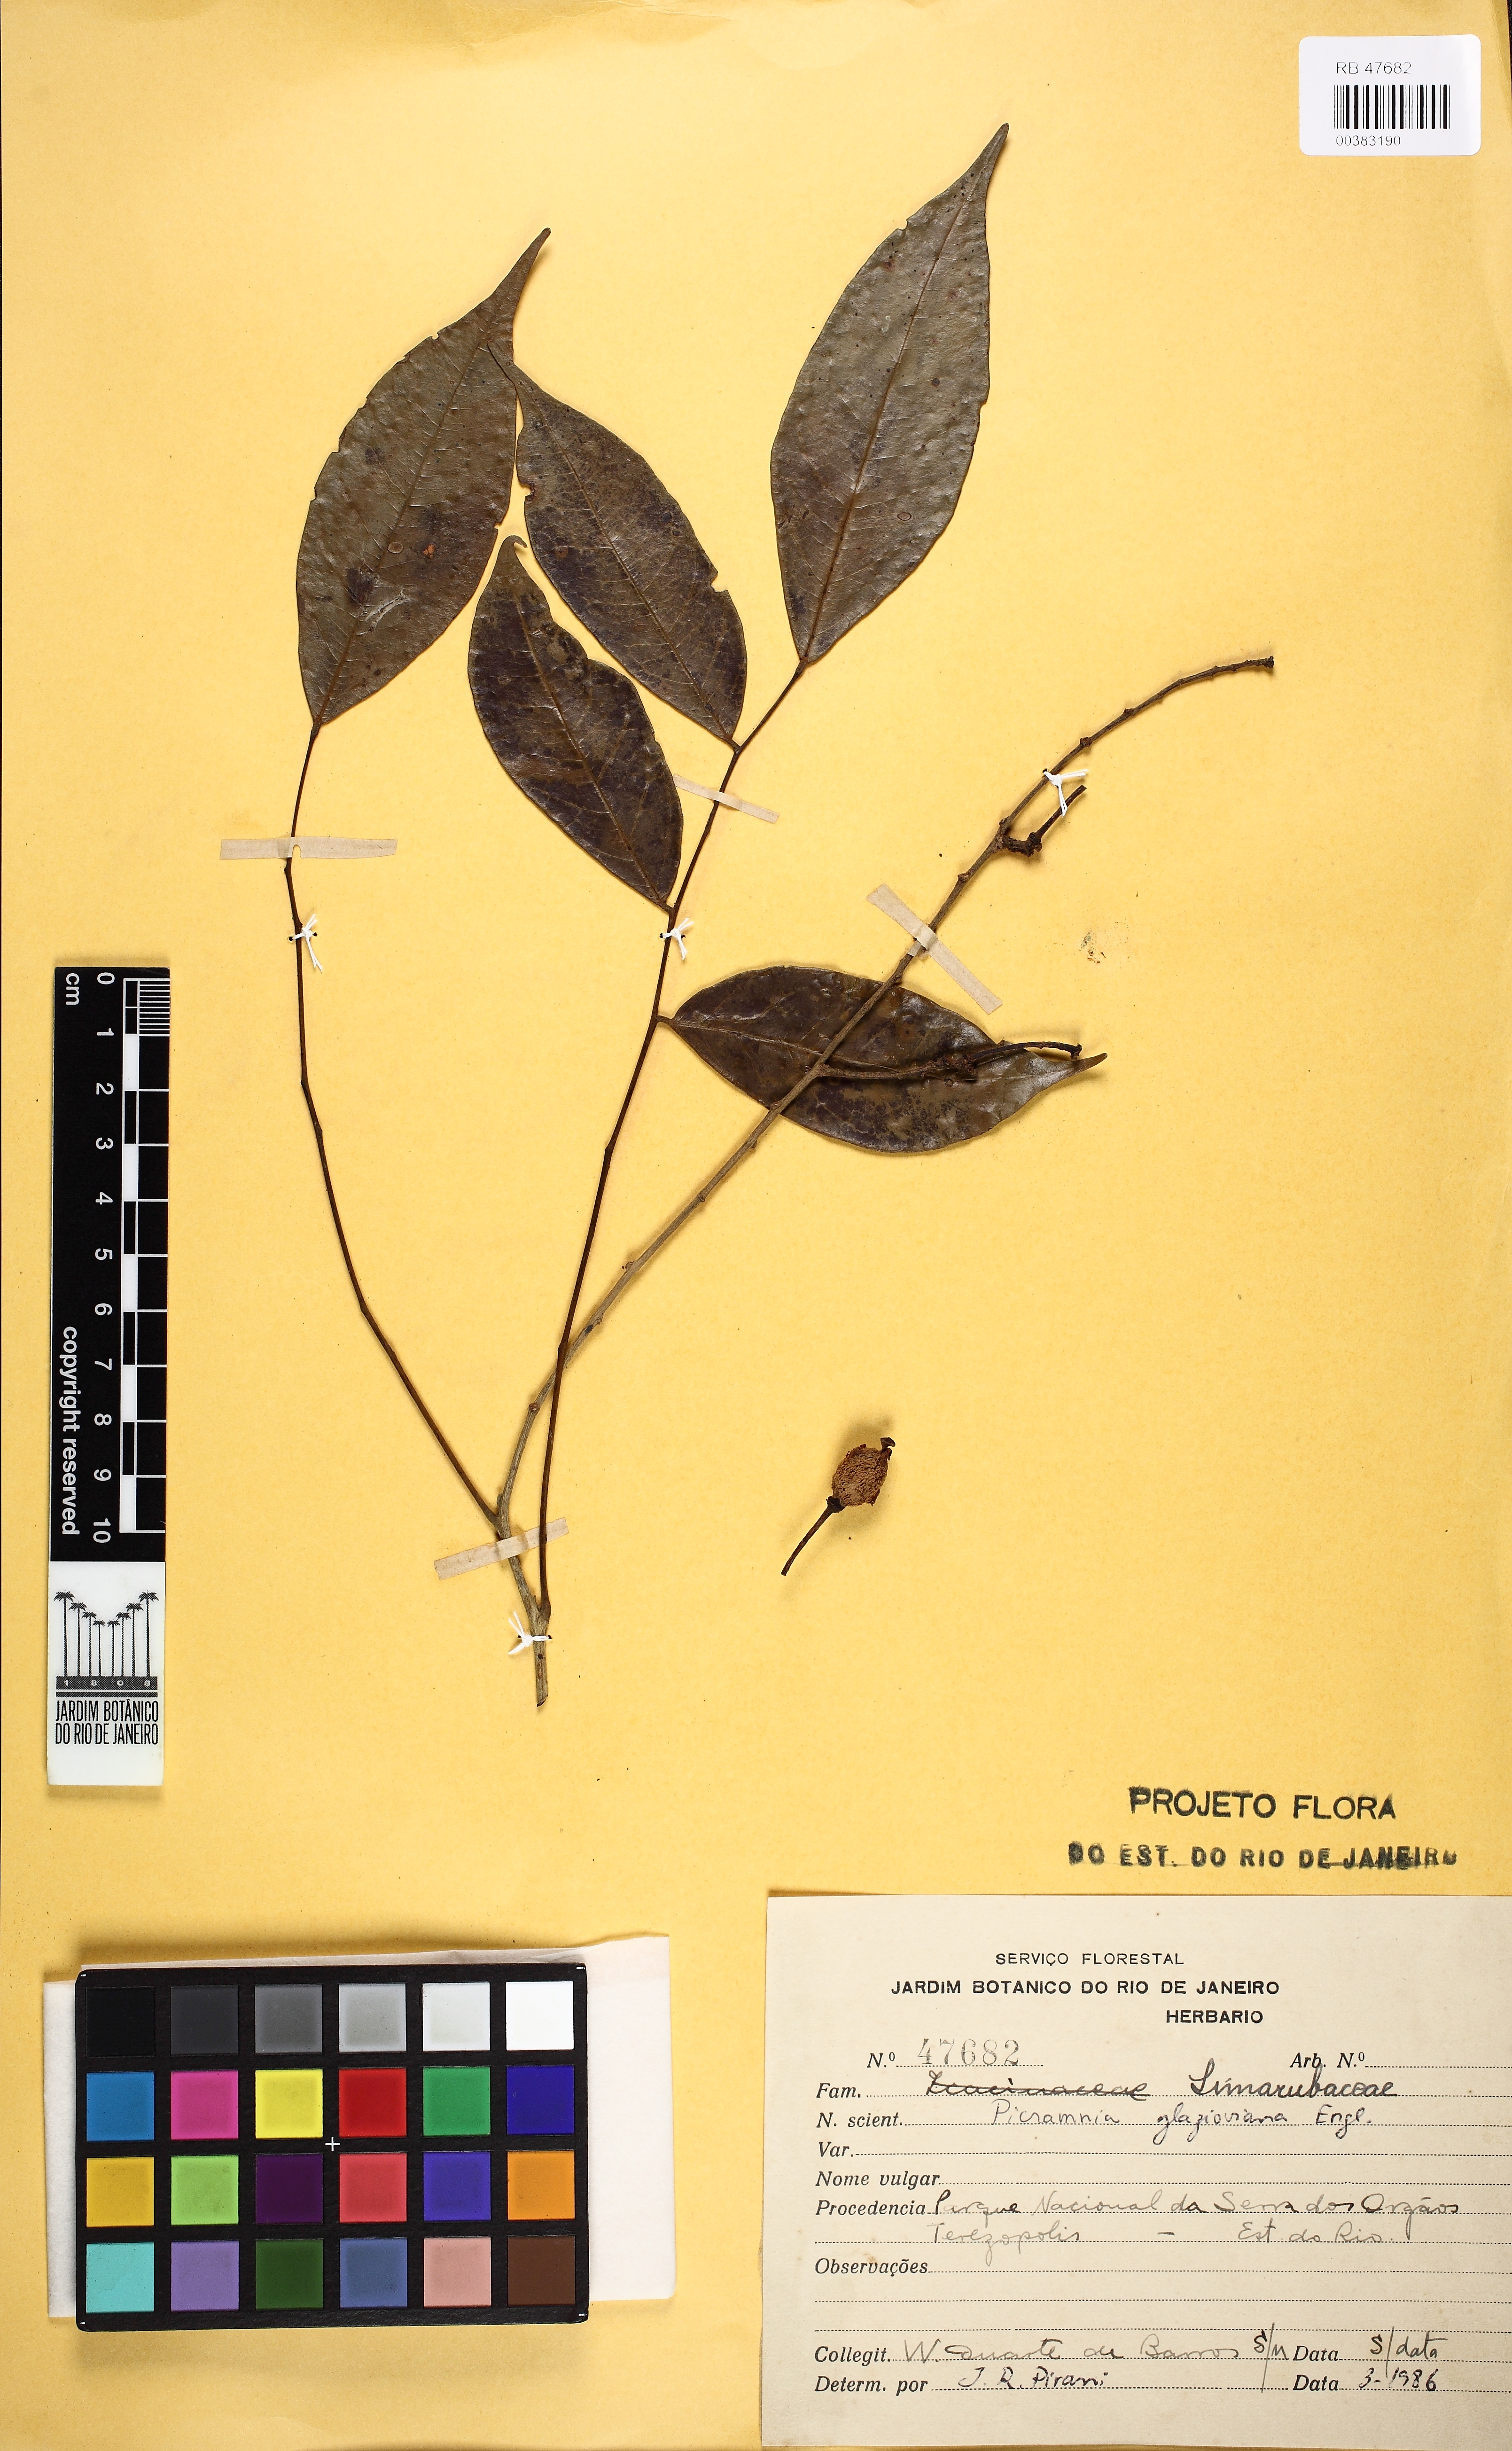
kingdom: Plantae
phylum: Tracheophyta
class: Magnoliopsida
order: Picramniales
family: Picramniaceae
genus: Picramnia
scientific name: Picramnia glazioviana
